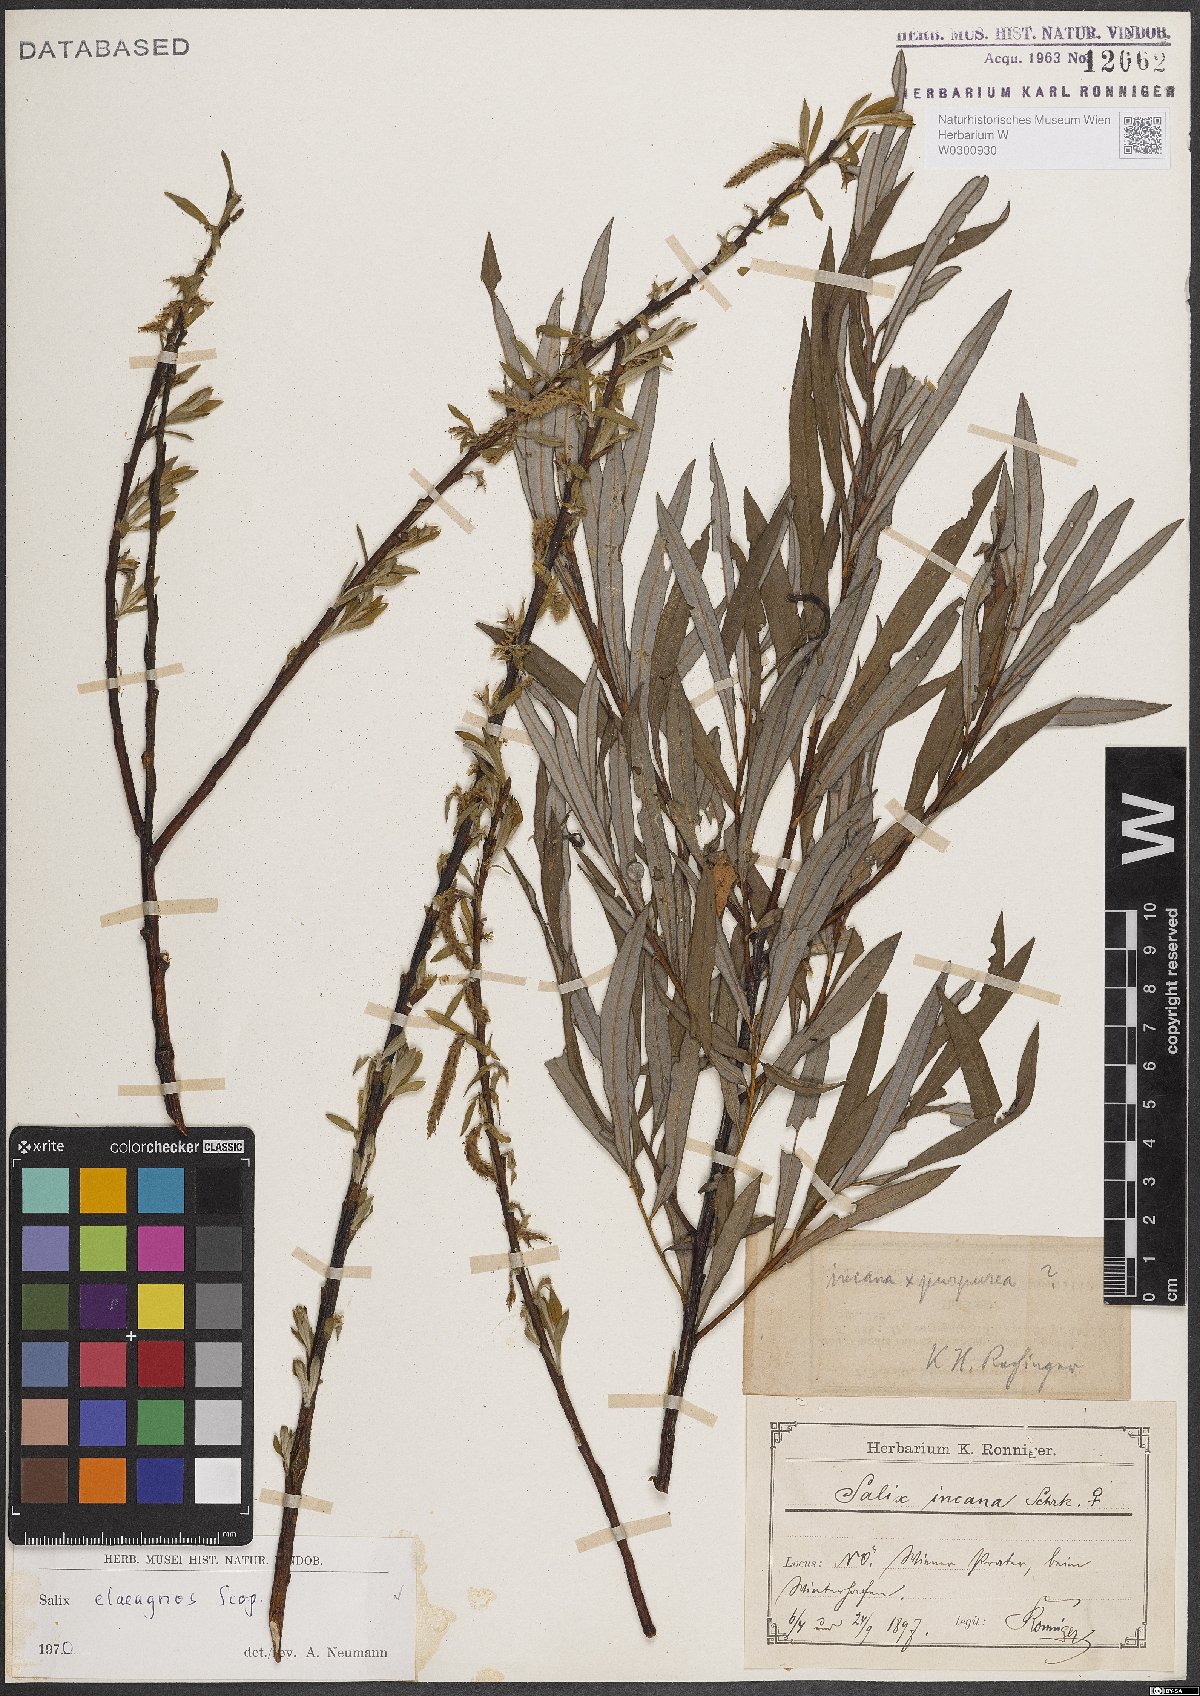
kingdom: Plantae
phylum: Tracheophyta
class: Magnoliopsida
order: Malpighiales
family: Salicaceae
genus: Salix
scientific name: Salix eleagnos
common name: Elaeagnus willow
